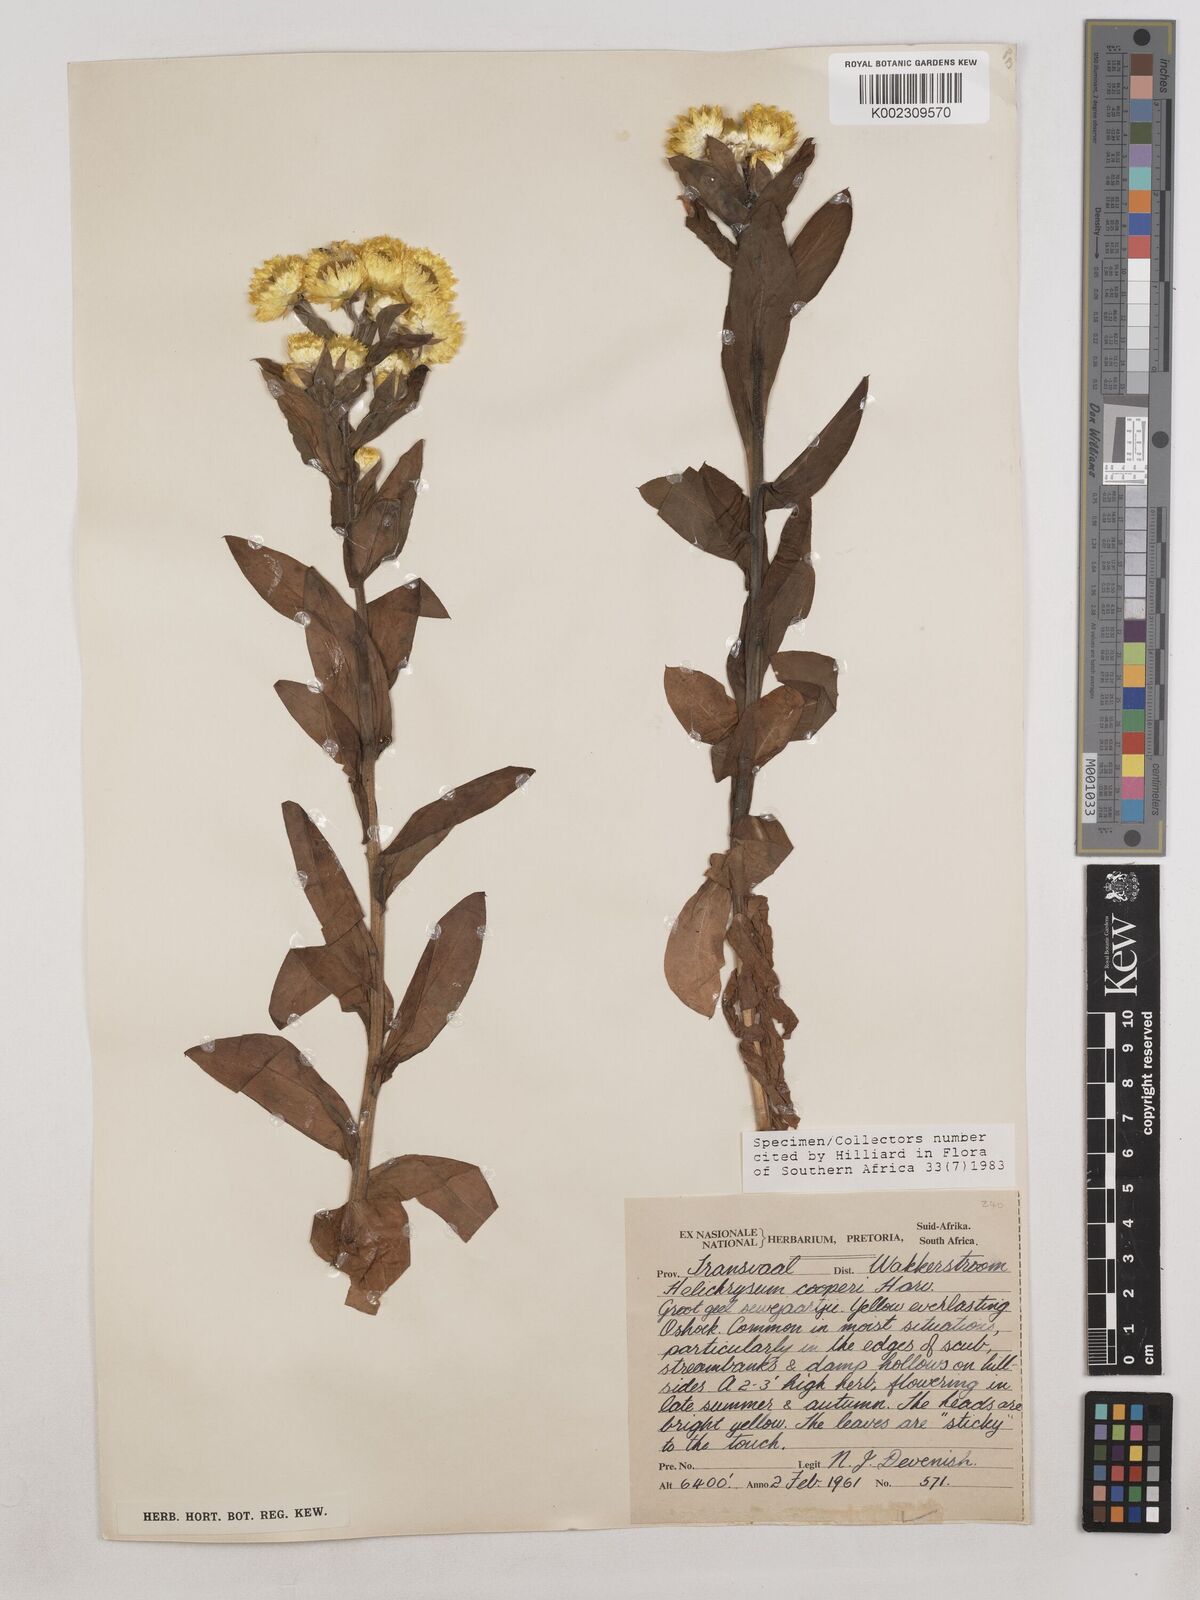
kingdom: Plantae
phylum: Tracheophyta
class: Magnoliopsida
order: Asterales
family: Asteraceae
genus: Helichrysum
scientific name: Helichrysum cooperi
